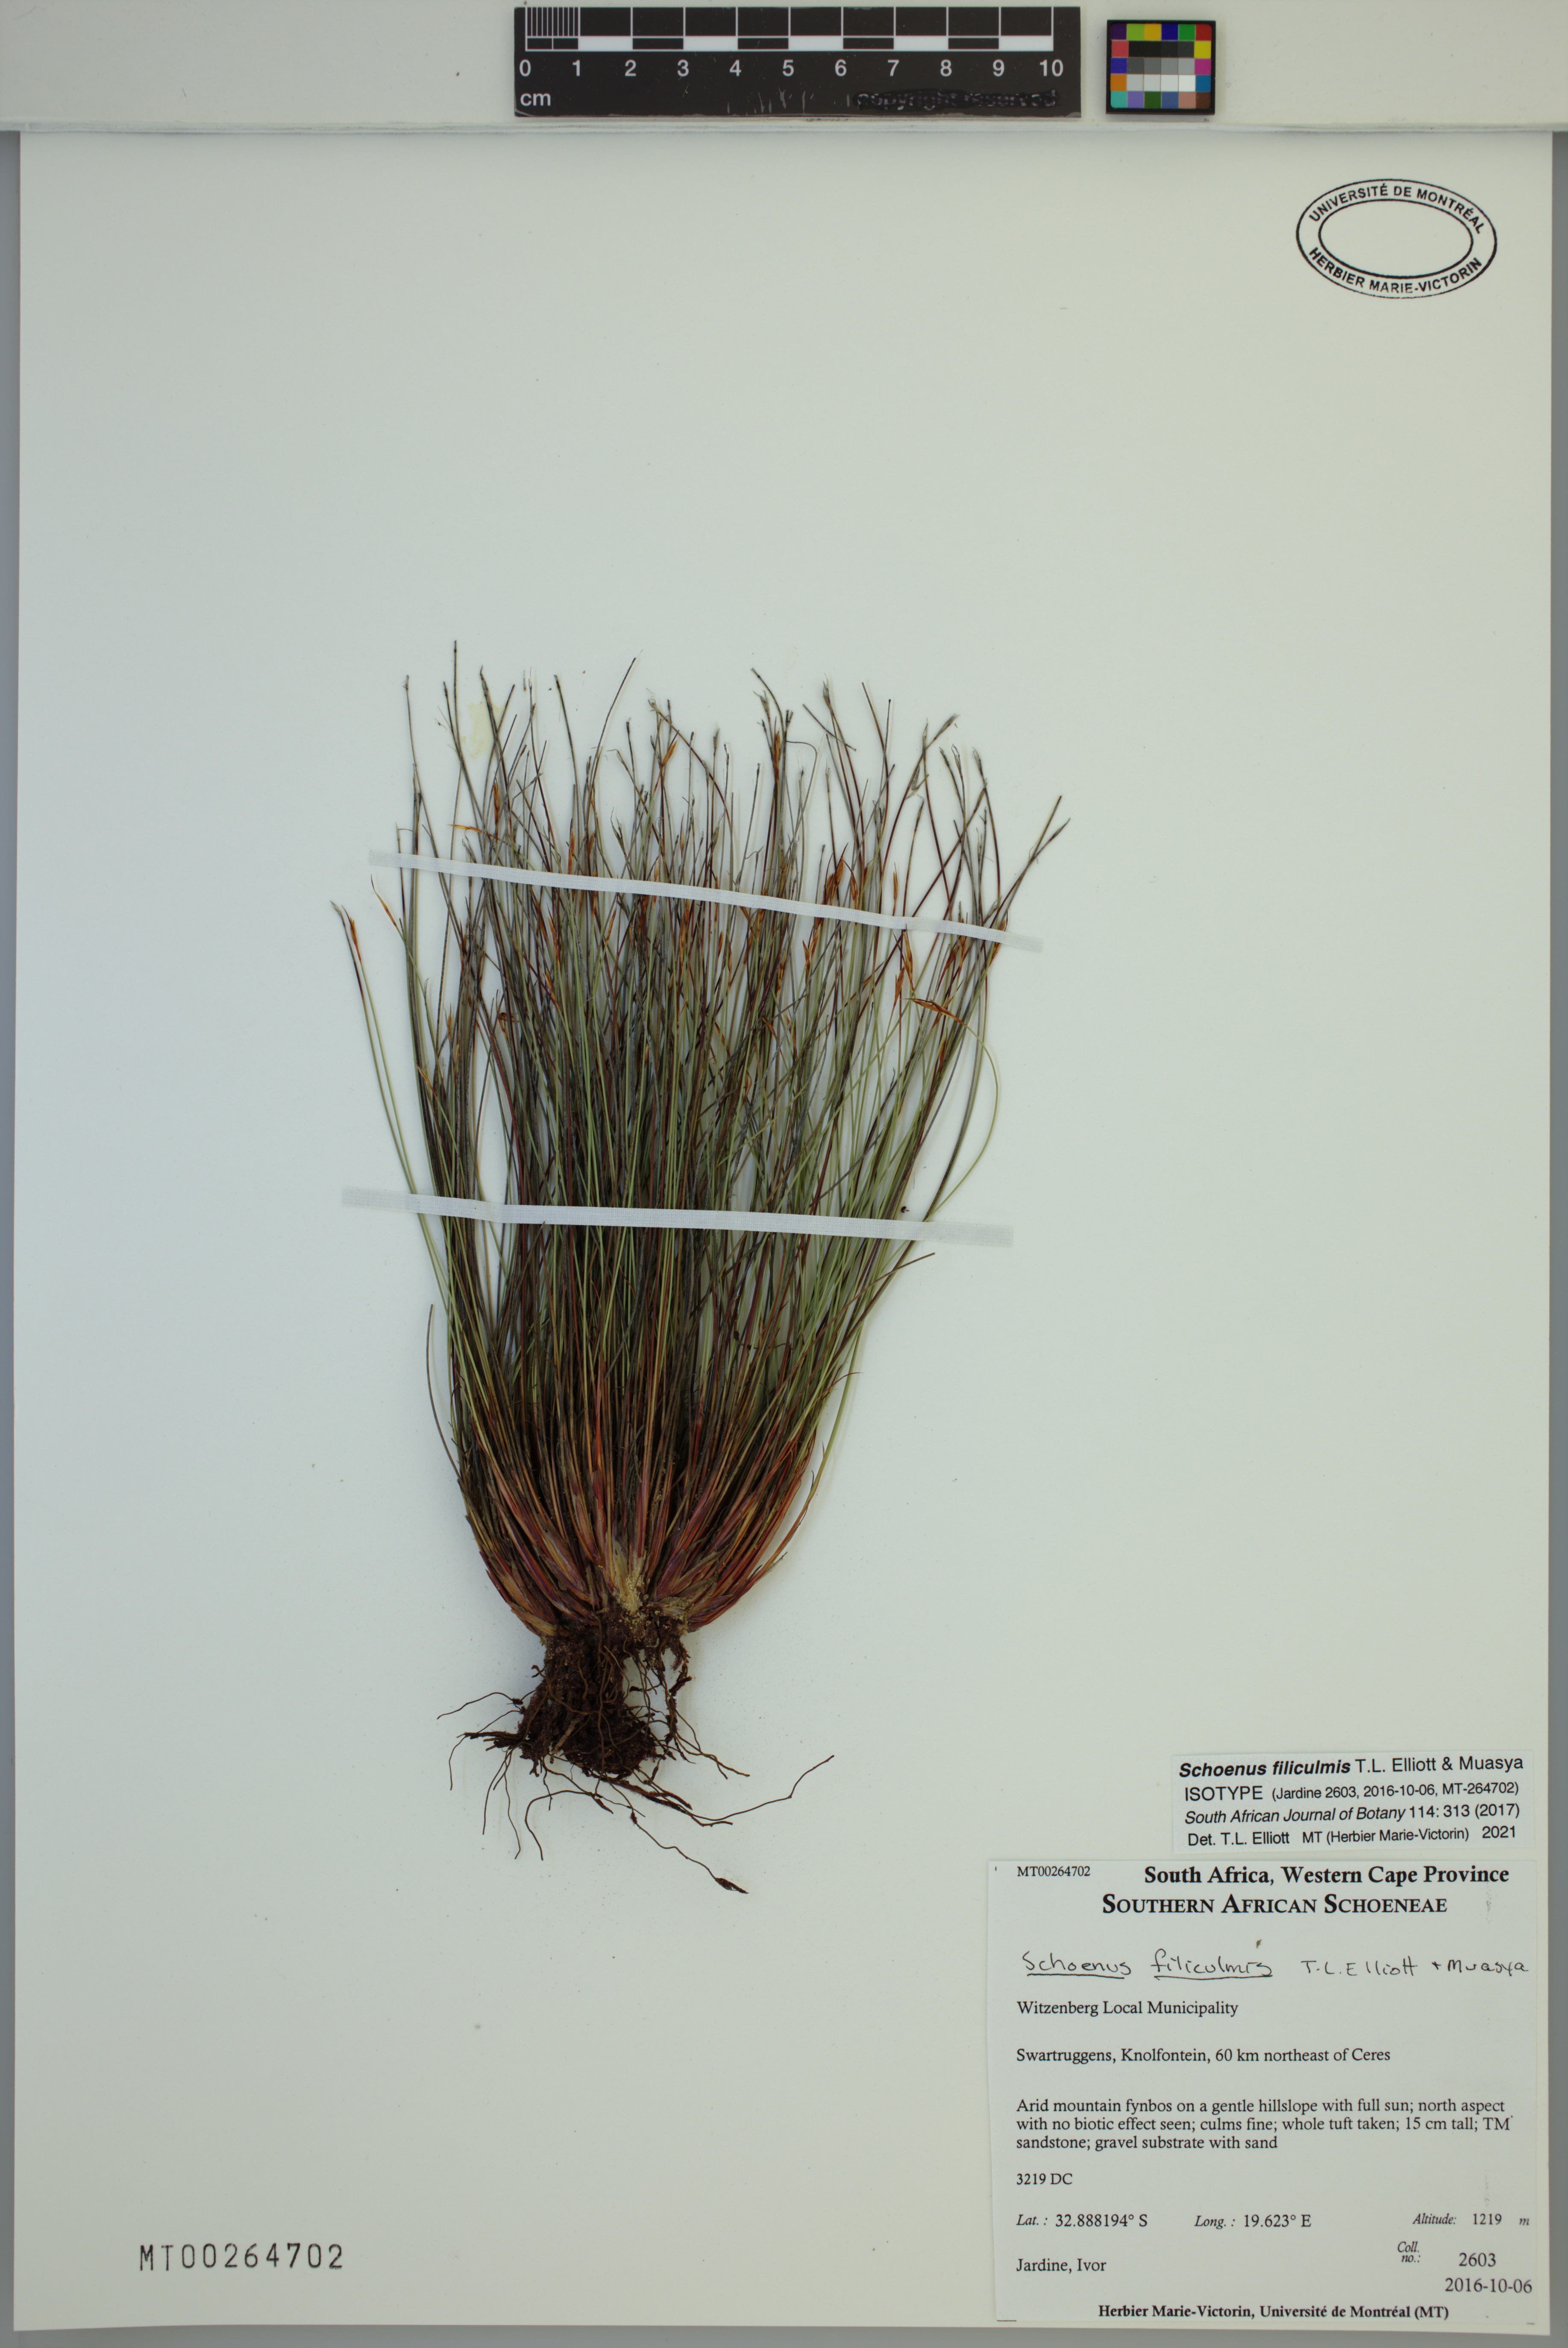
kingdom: Plantae
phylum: Tracheophyta
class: Liliopsida
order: Poales
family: Cyperaceae
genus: Schoenus
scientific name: Schoenus filiculmis
